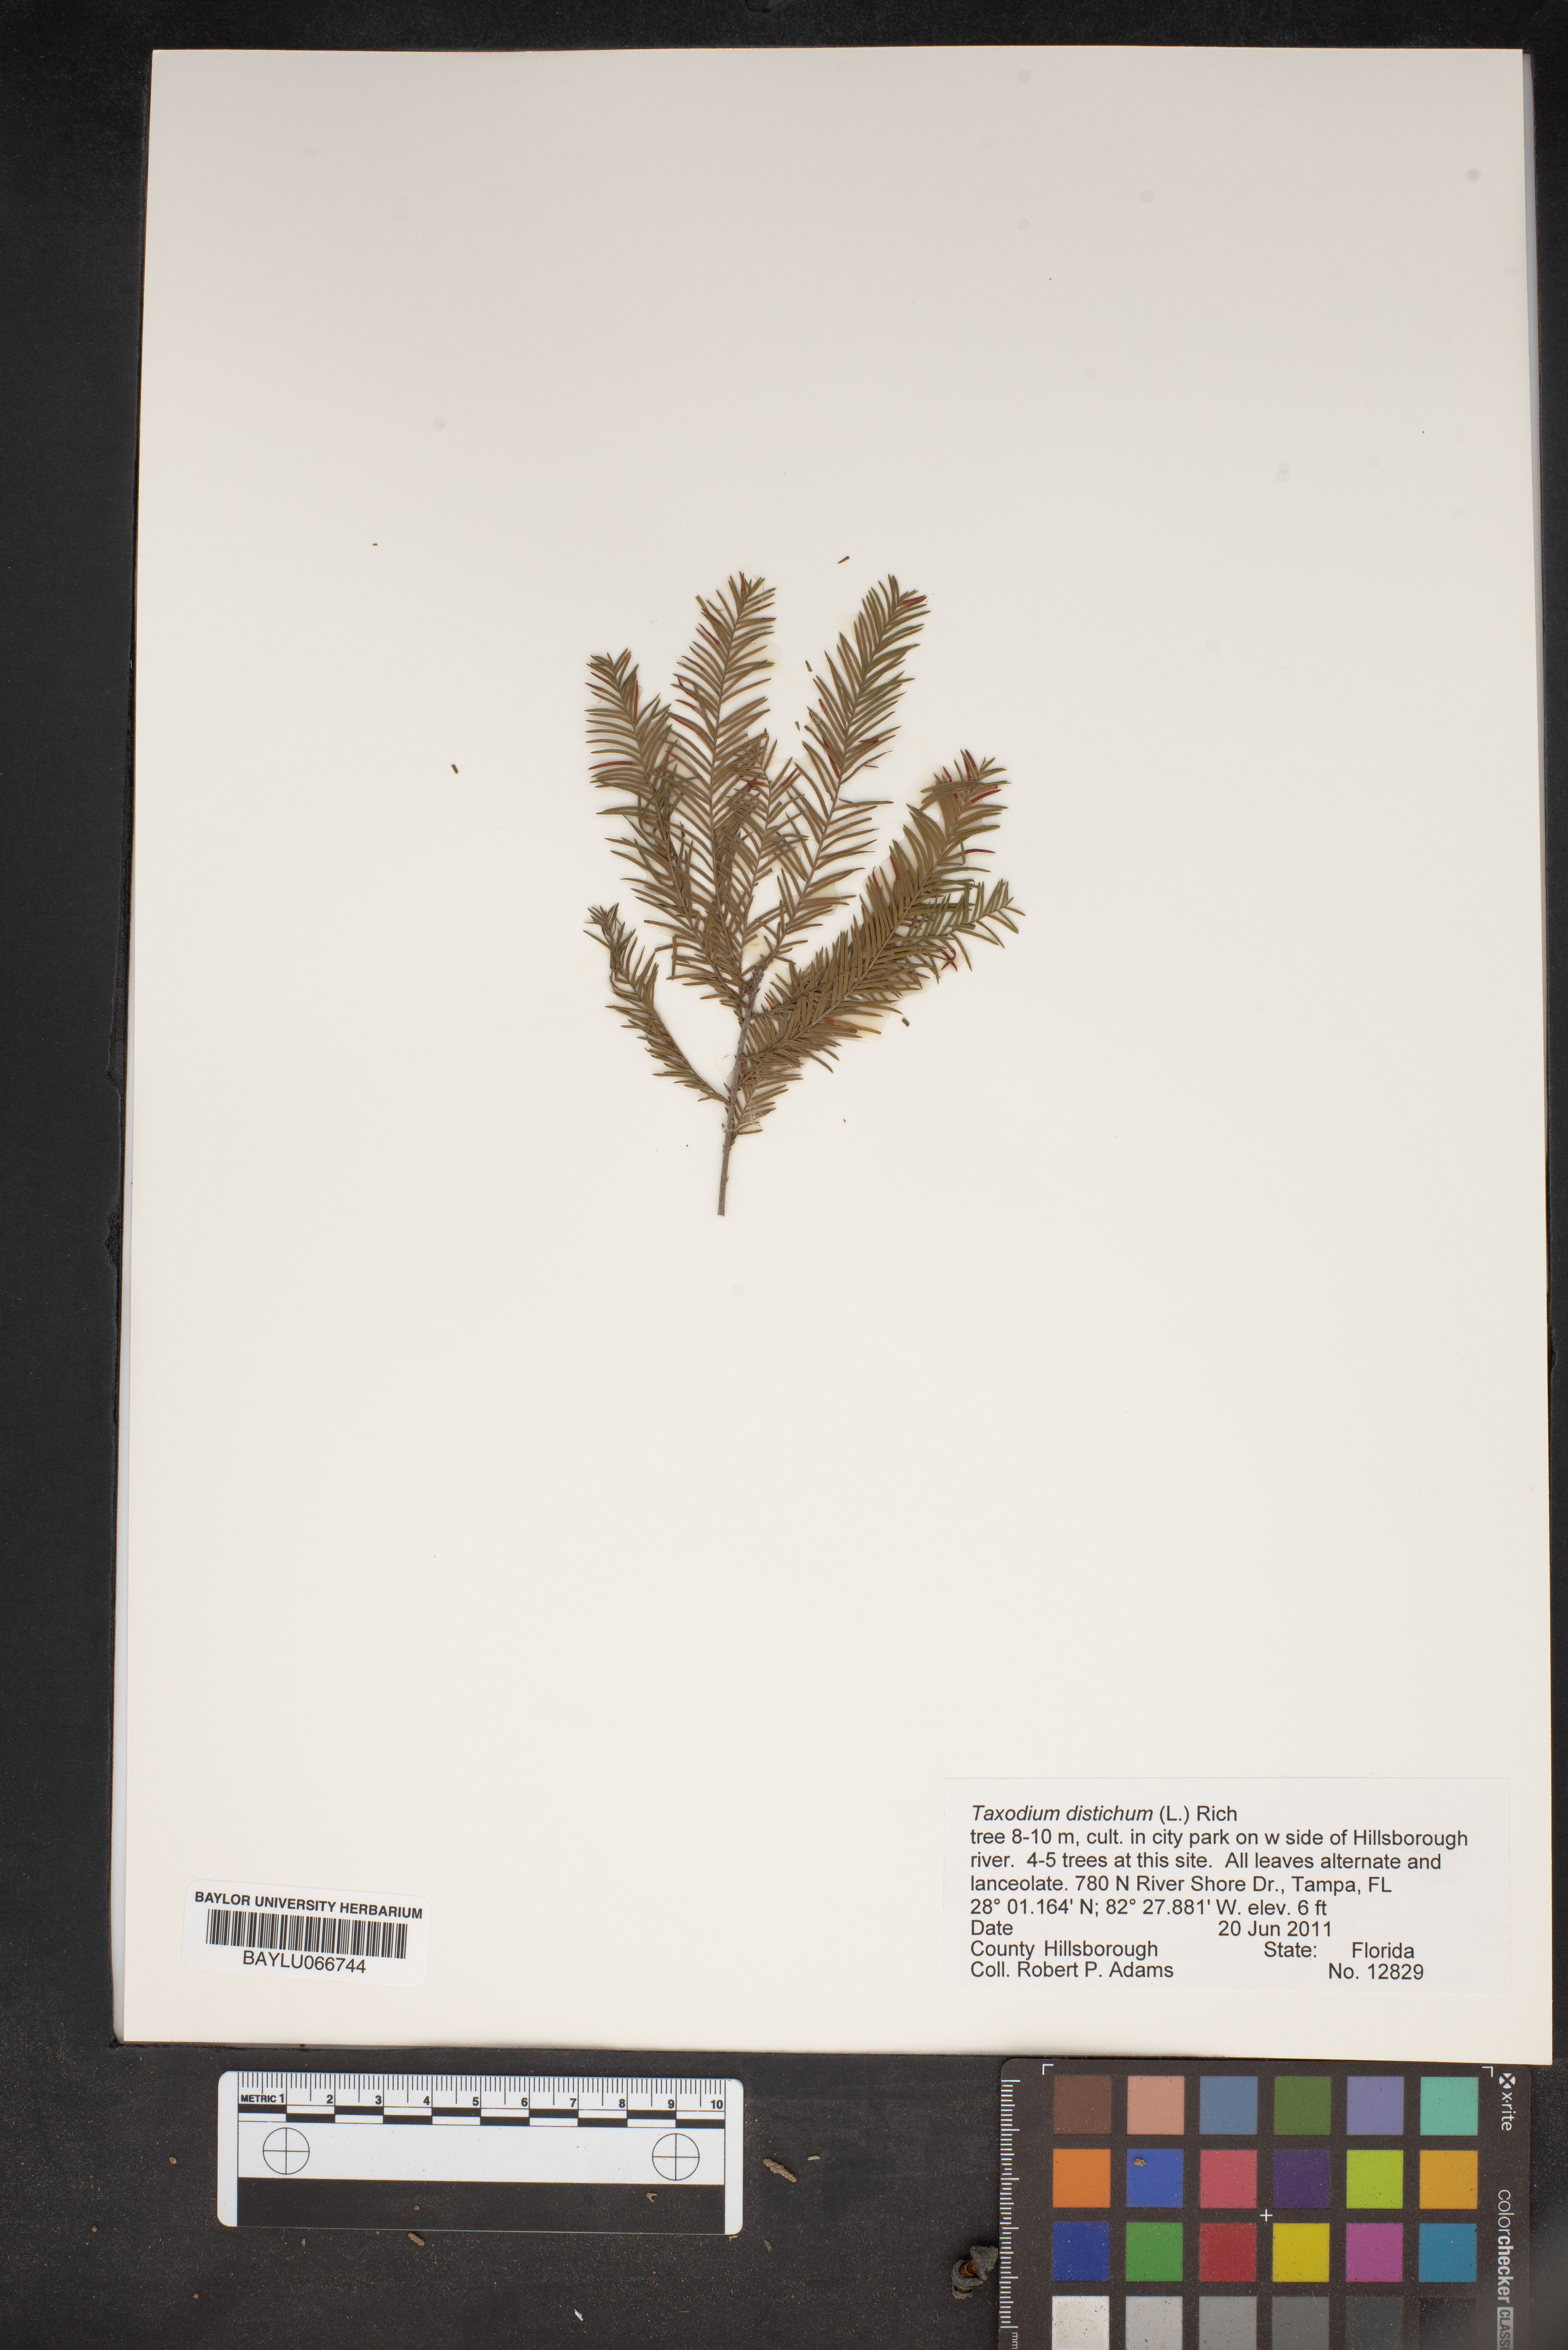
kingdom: Plantae
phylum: Tracheophyta
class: Pinopsida
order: Pinales
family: Cupressaceae
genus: Taxodium
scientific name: Taxodium distichum
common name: Bald cypress
